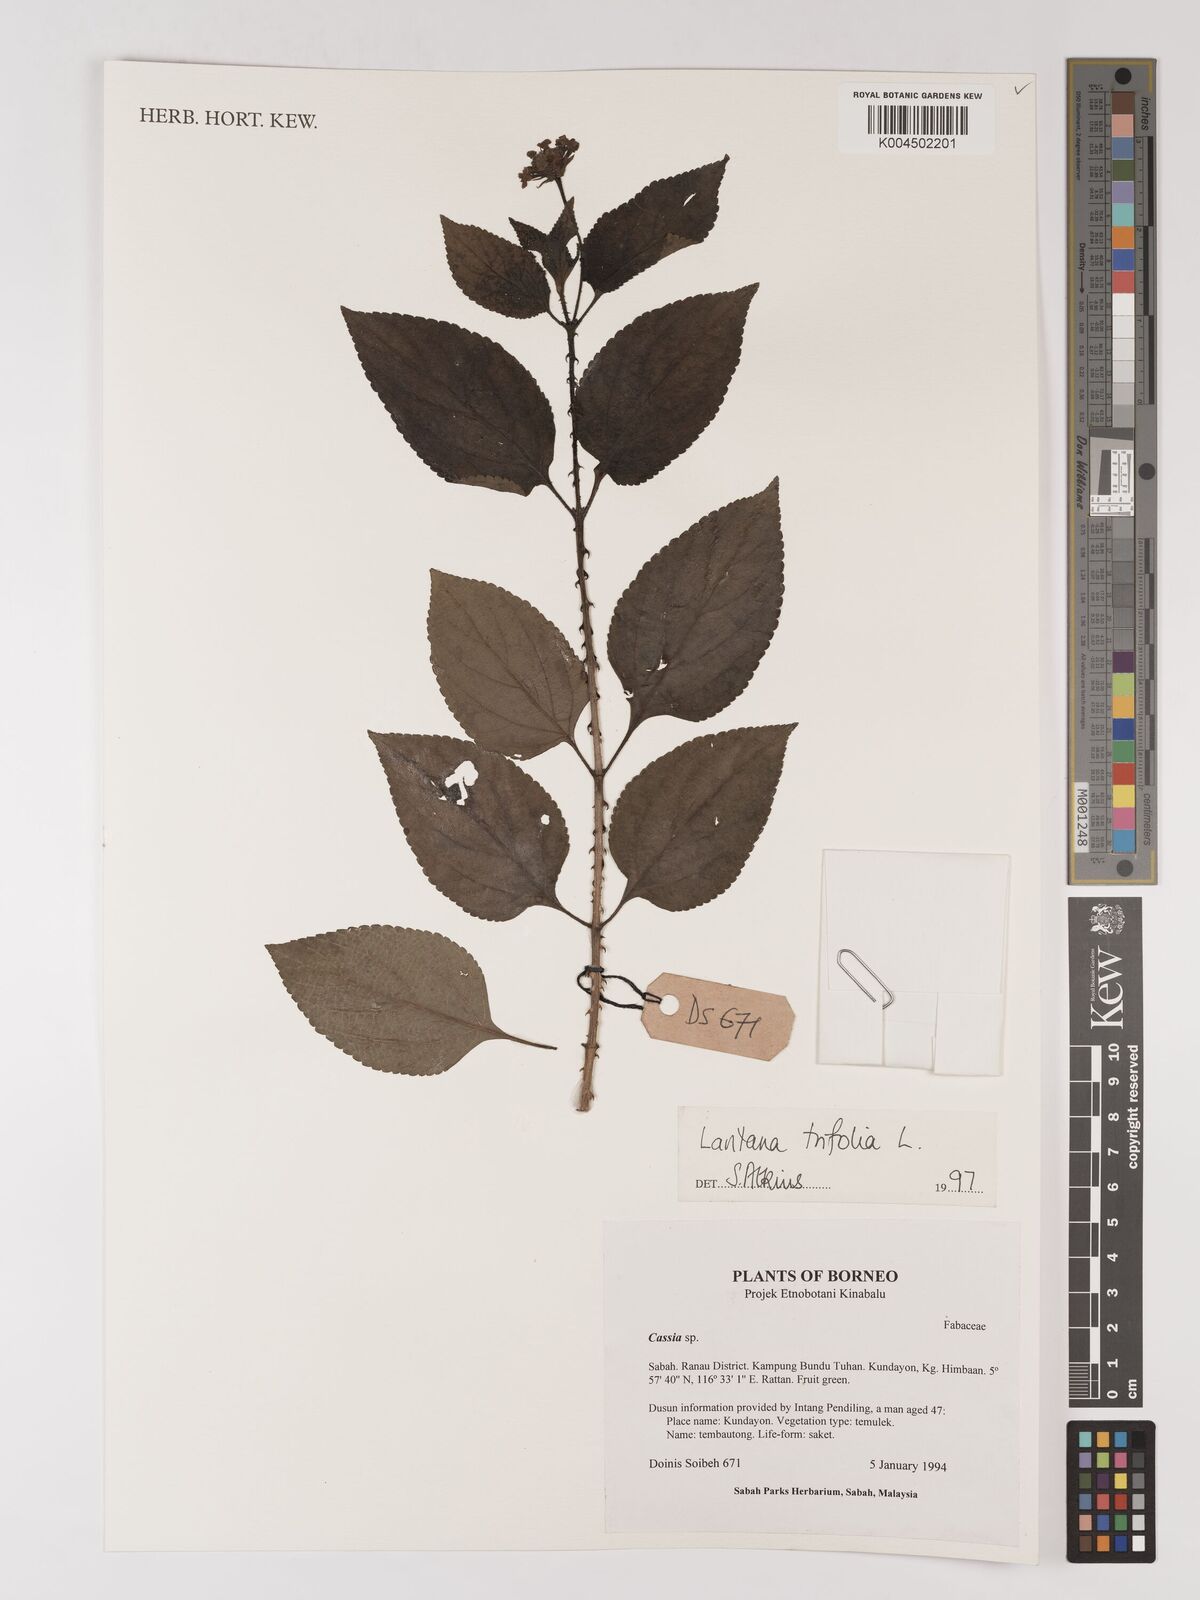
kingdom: Plantae
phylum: Tracheophyta
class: Magnoliopsida
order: Lamiales
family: Verbenaceae
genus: Lantana
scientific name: Lantana trifolia
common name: Sweet-sage
